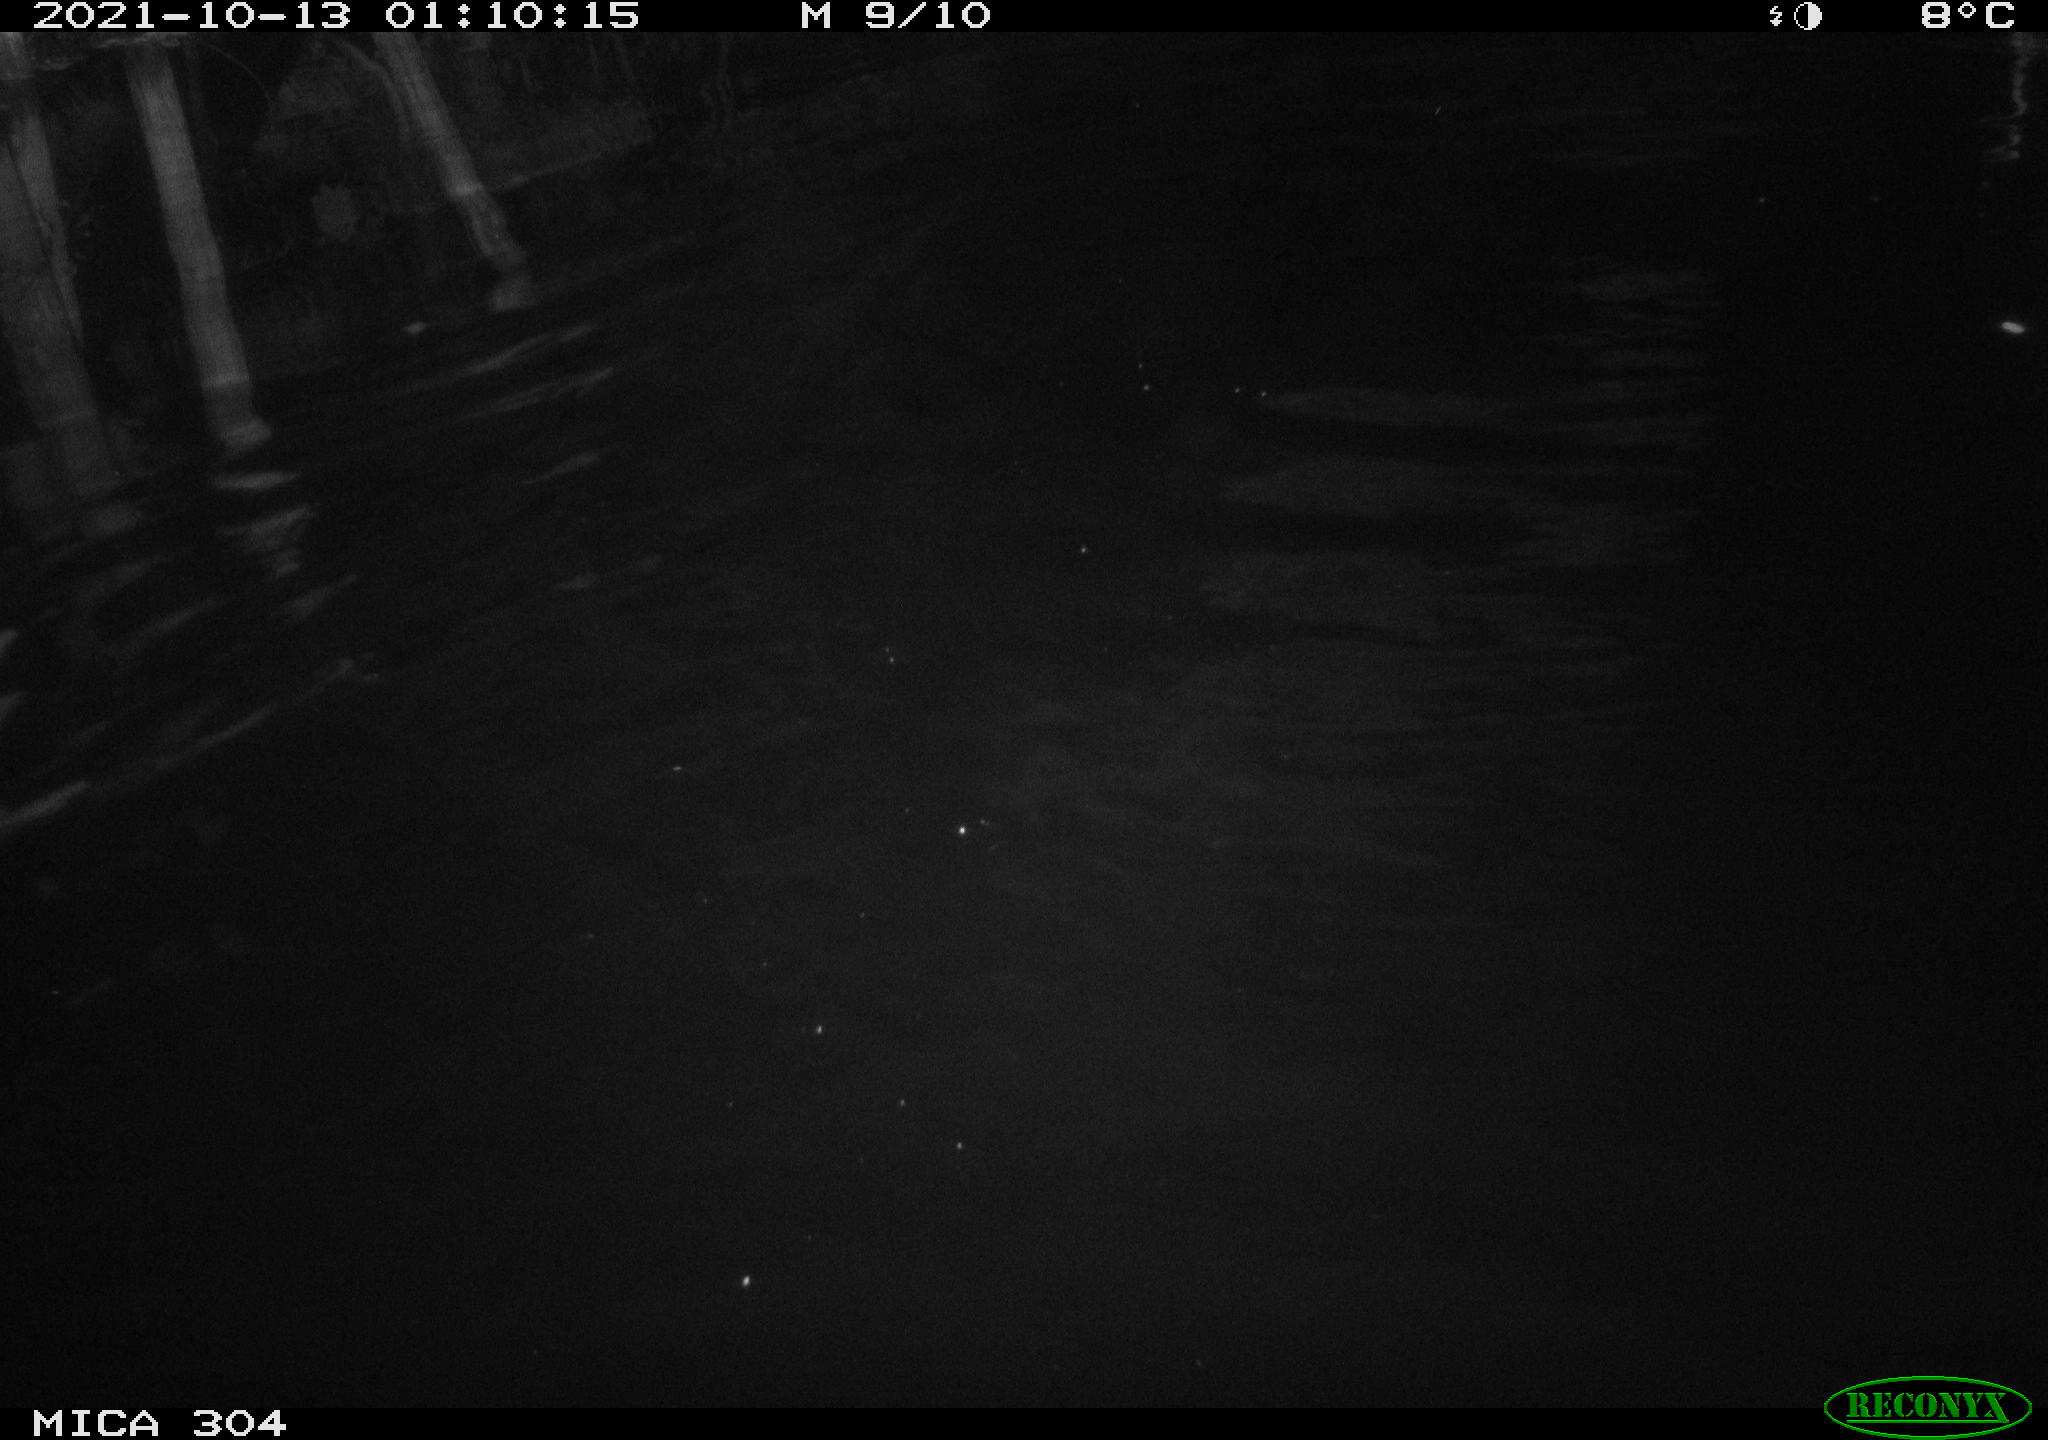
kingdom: Animalia
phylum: Chordata
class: Mammalia
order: Rodentia
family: Cricetidae
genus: Ondatra
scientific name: Ondatra zibethicus
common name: Muskrat
